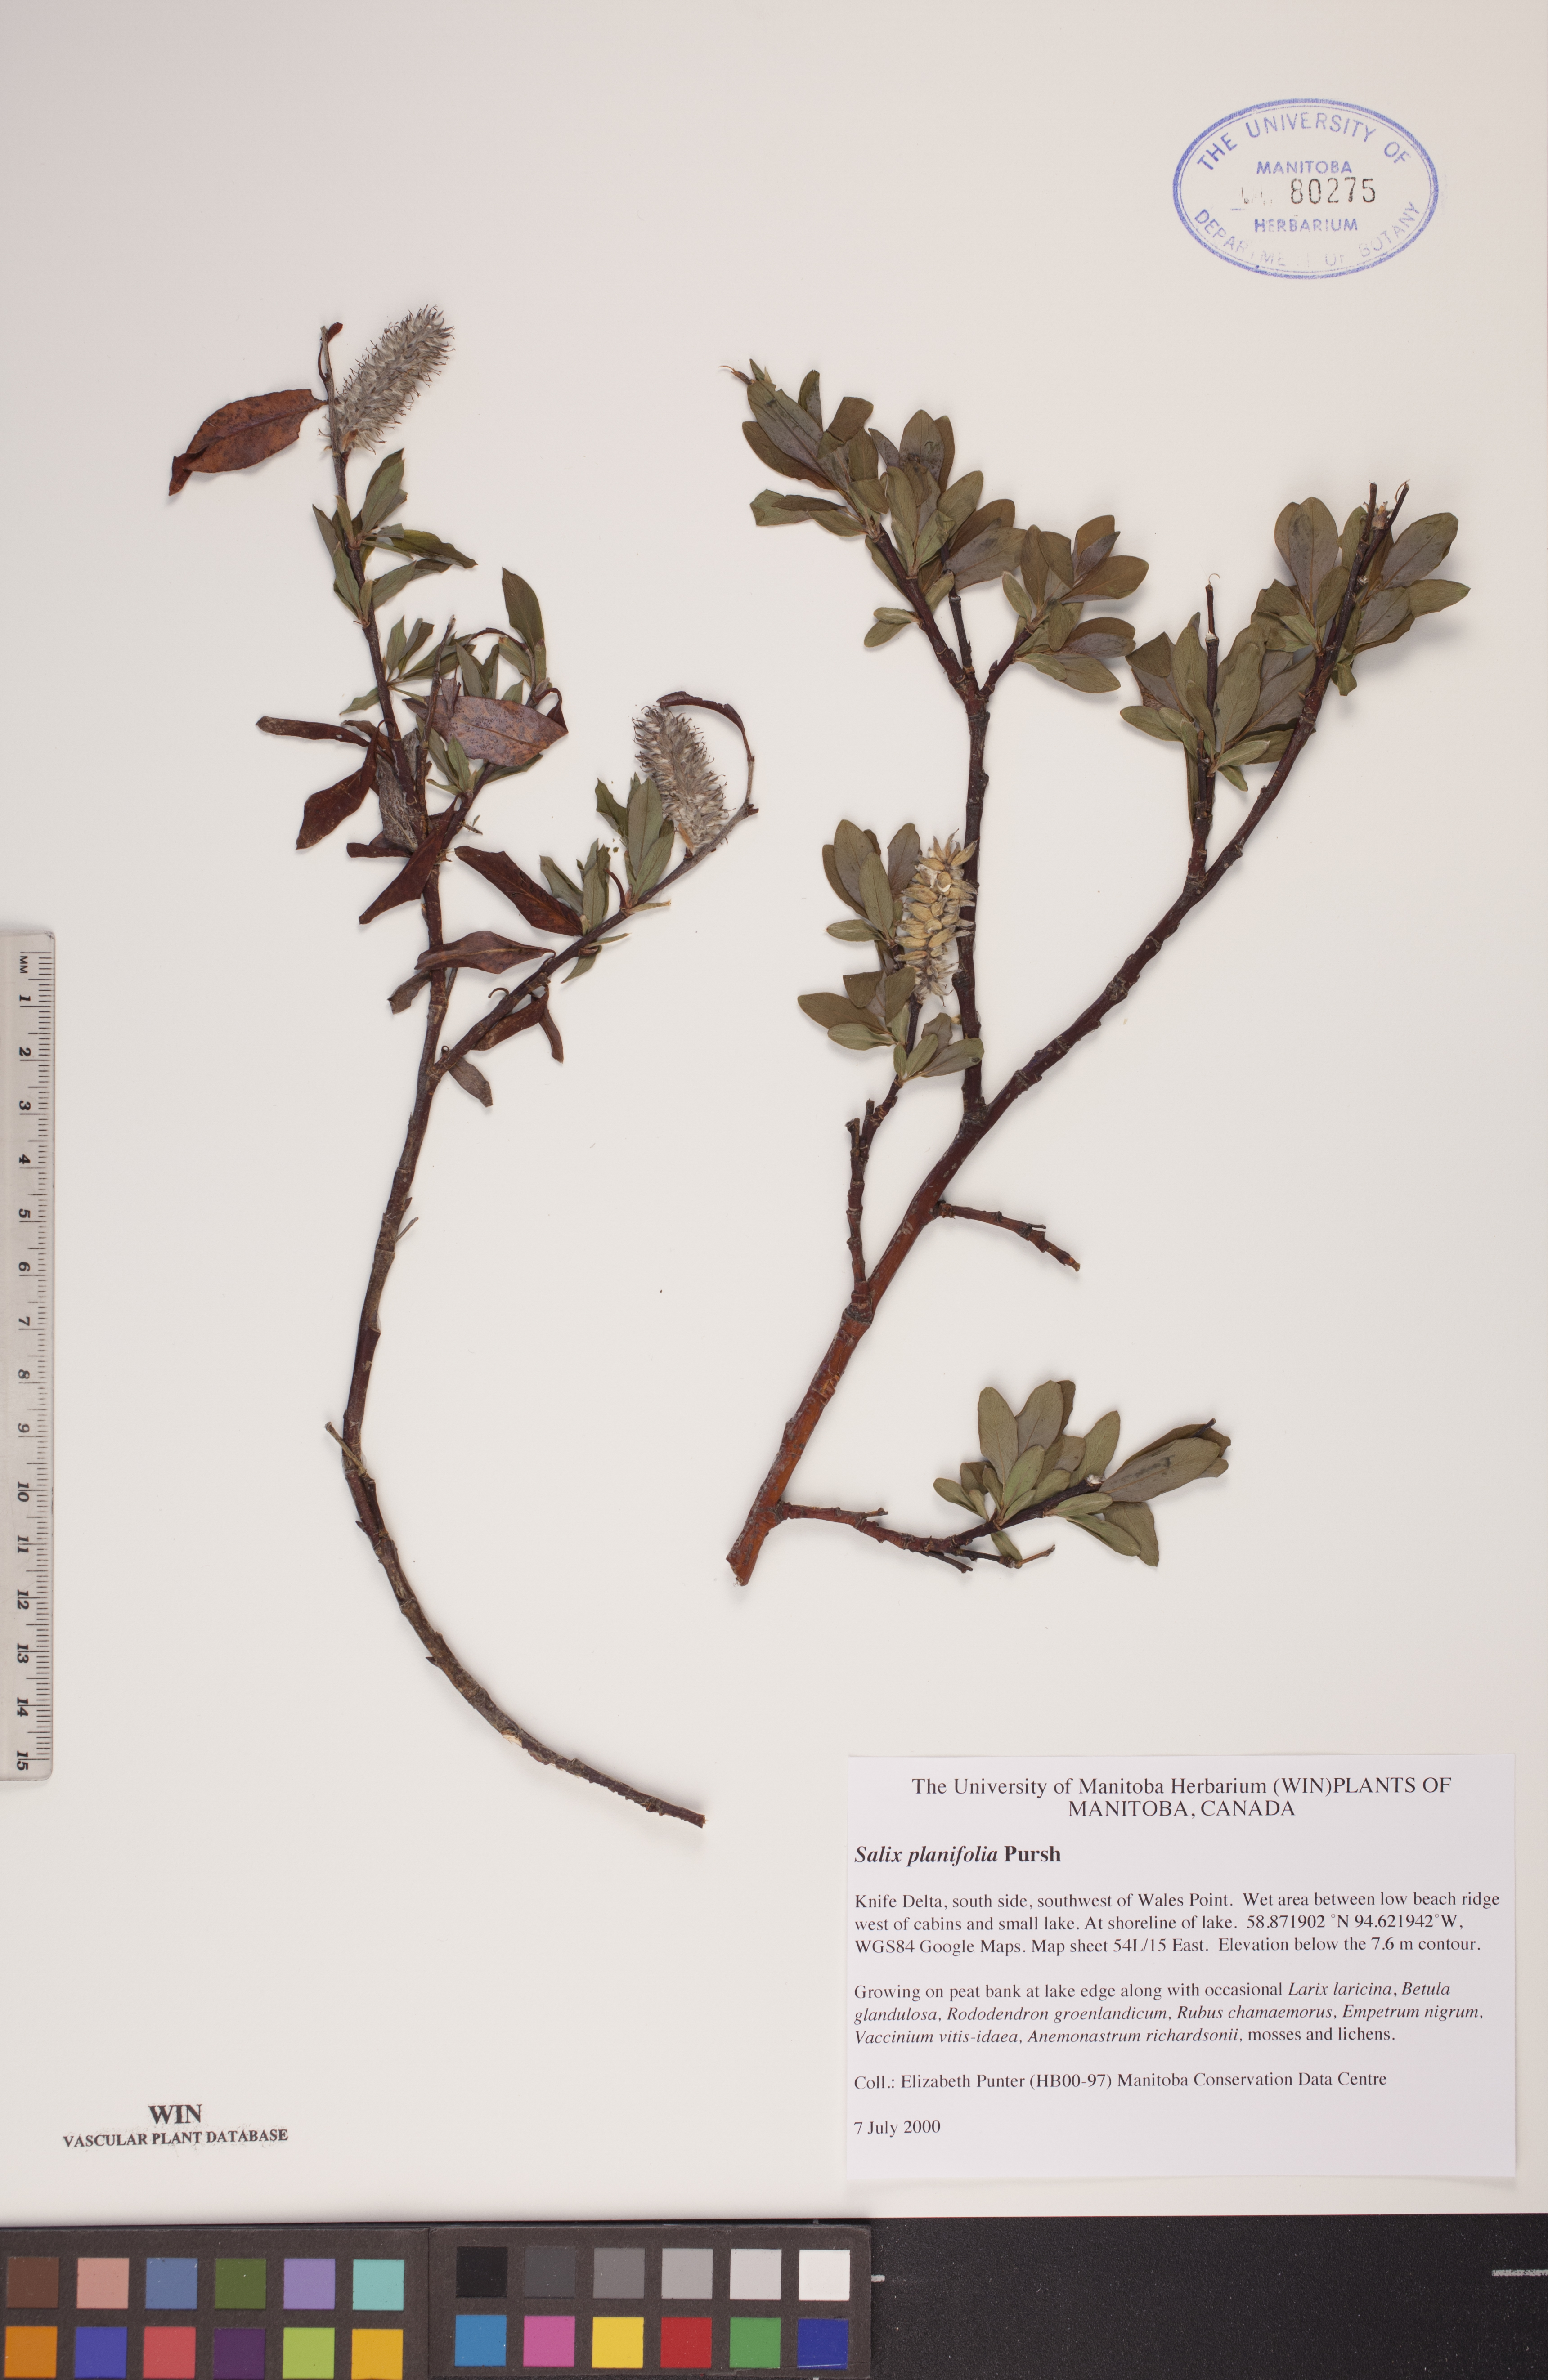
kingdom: Plantae
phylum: Tracheophyta
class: Magnoliopsida
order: Malpighiales
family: Salicaceae
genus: Salix
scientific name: Salix planifolia
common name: Mountain willow
